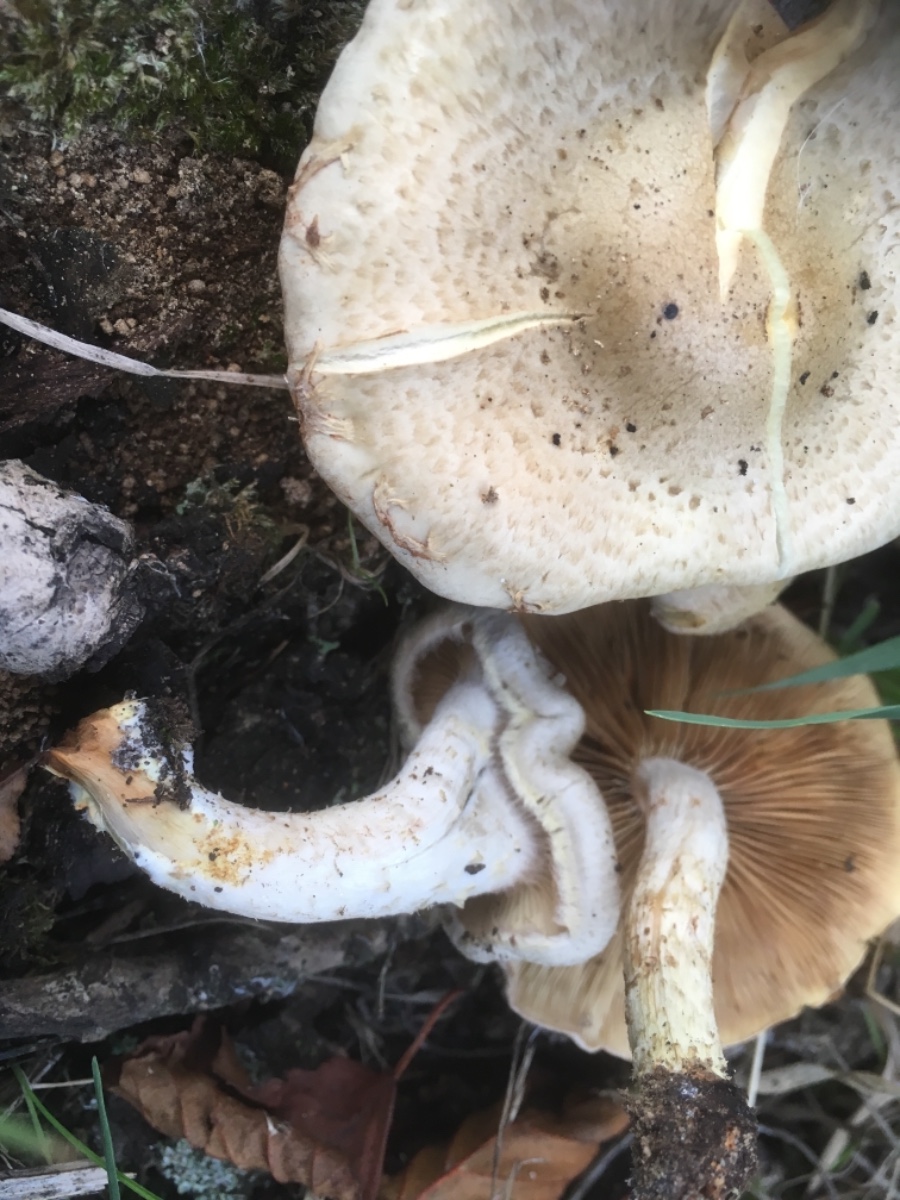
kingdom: Fungi
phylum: Basidiomycota
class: Agaricomycetes
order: Agaricales
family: Strophariaceae
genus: Pholiota
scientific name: Pholiota gummosa
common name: grøngul skælhat
